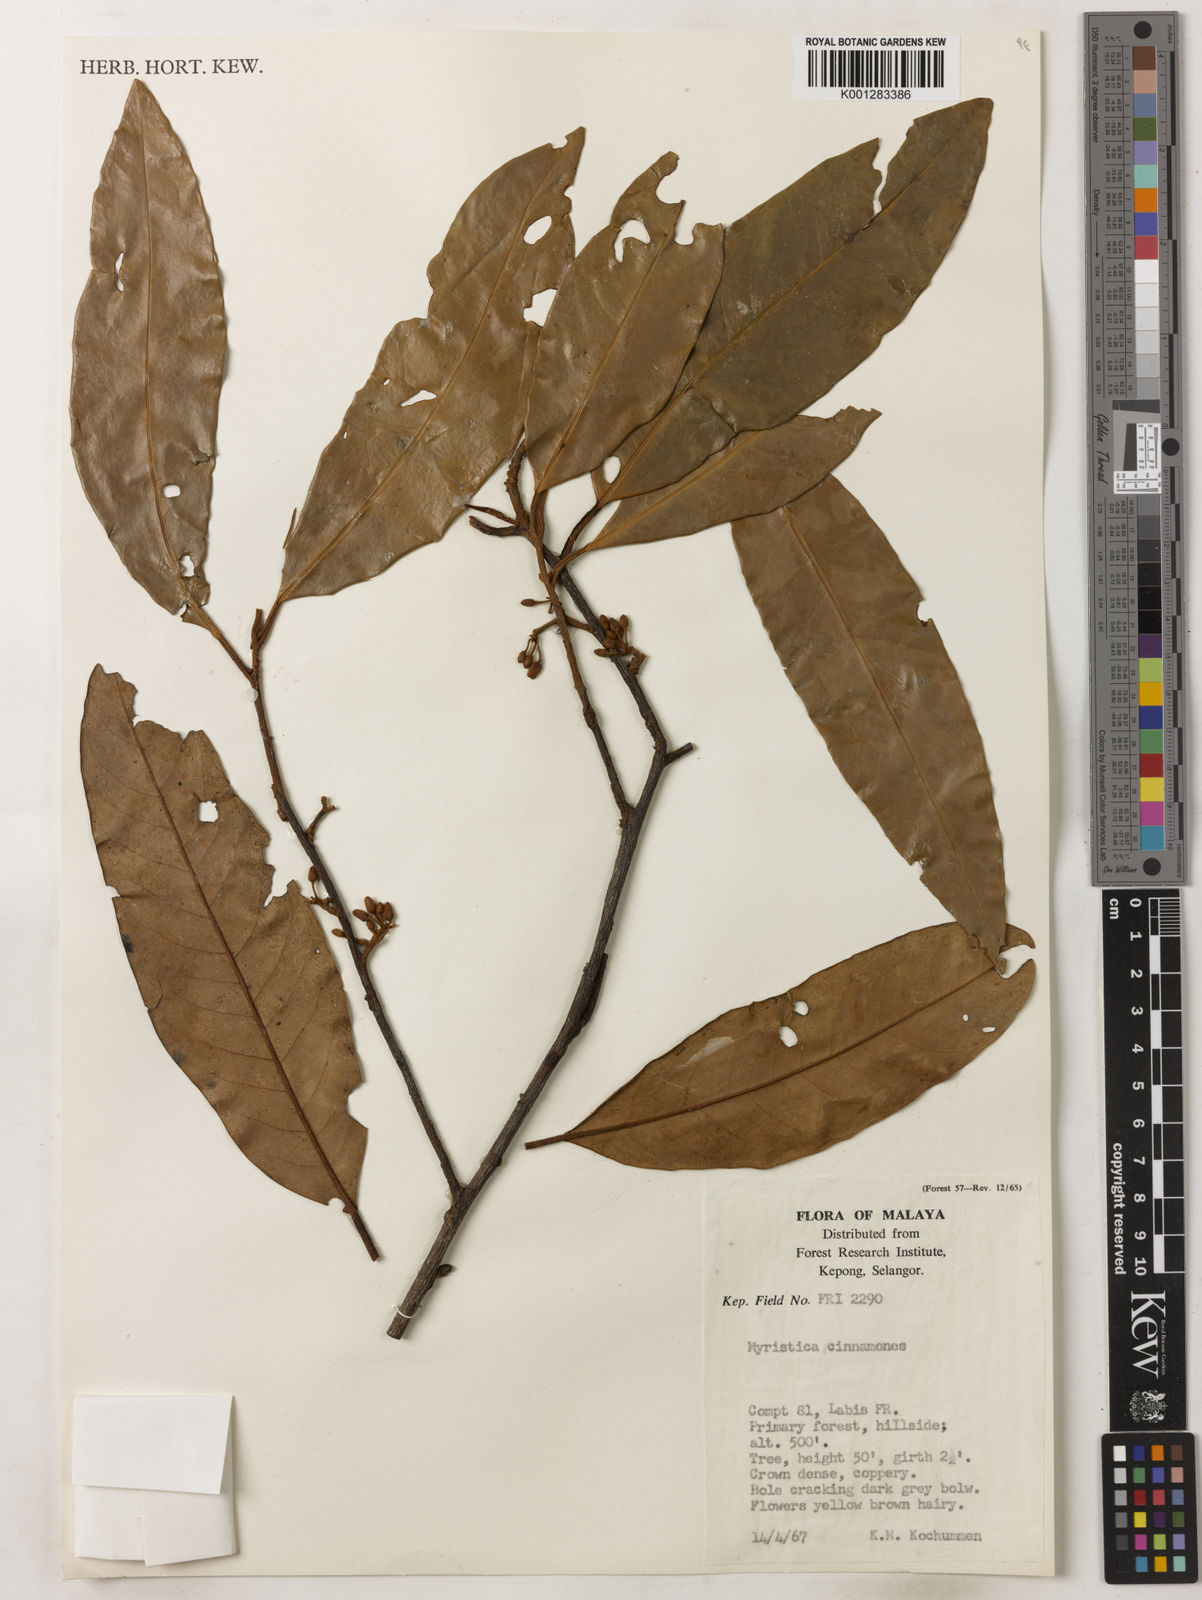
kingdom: Plantae
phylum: Tracheophyta
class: Magnoliopsida
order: Magnoliales
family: Myristicaceae
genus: Myristica
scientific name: Myristica cinnamomea
